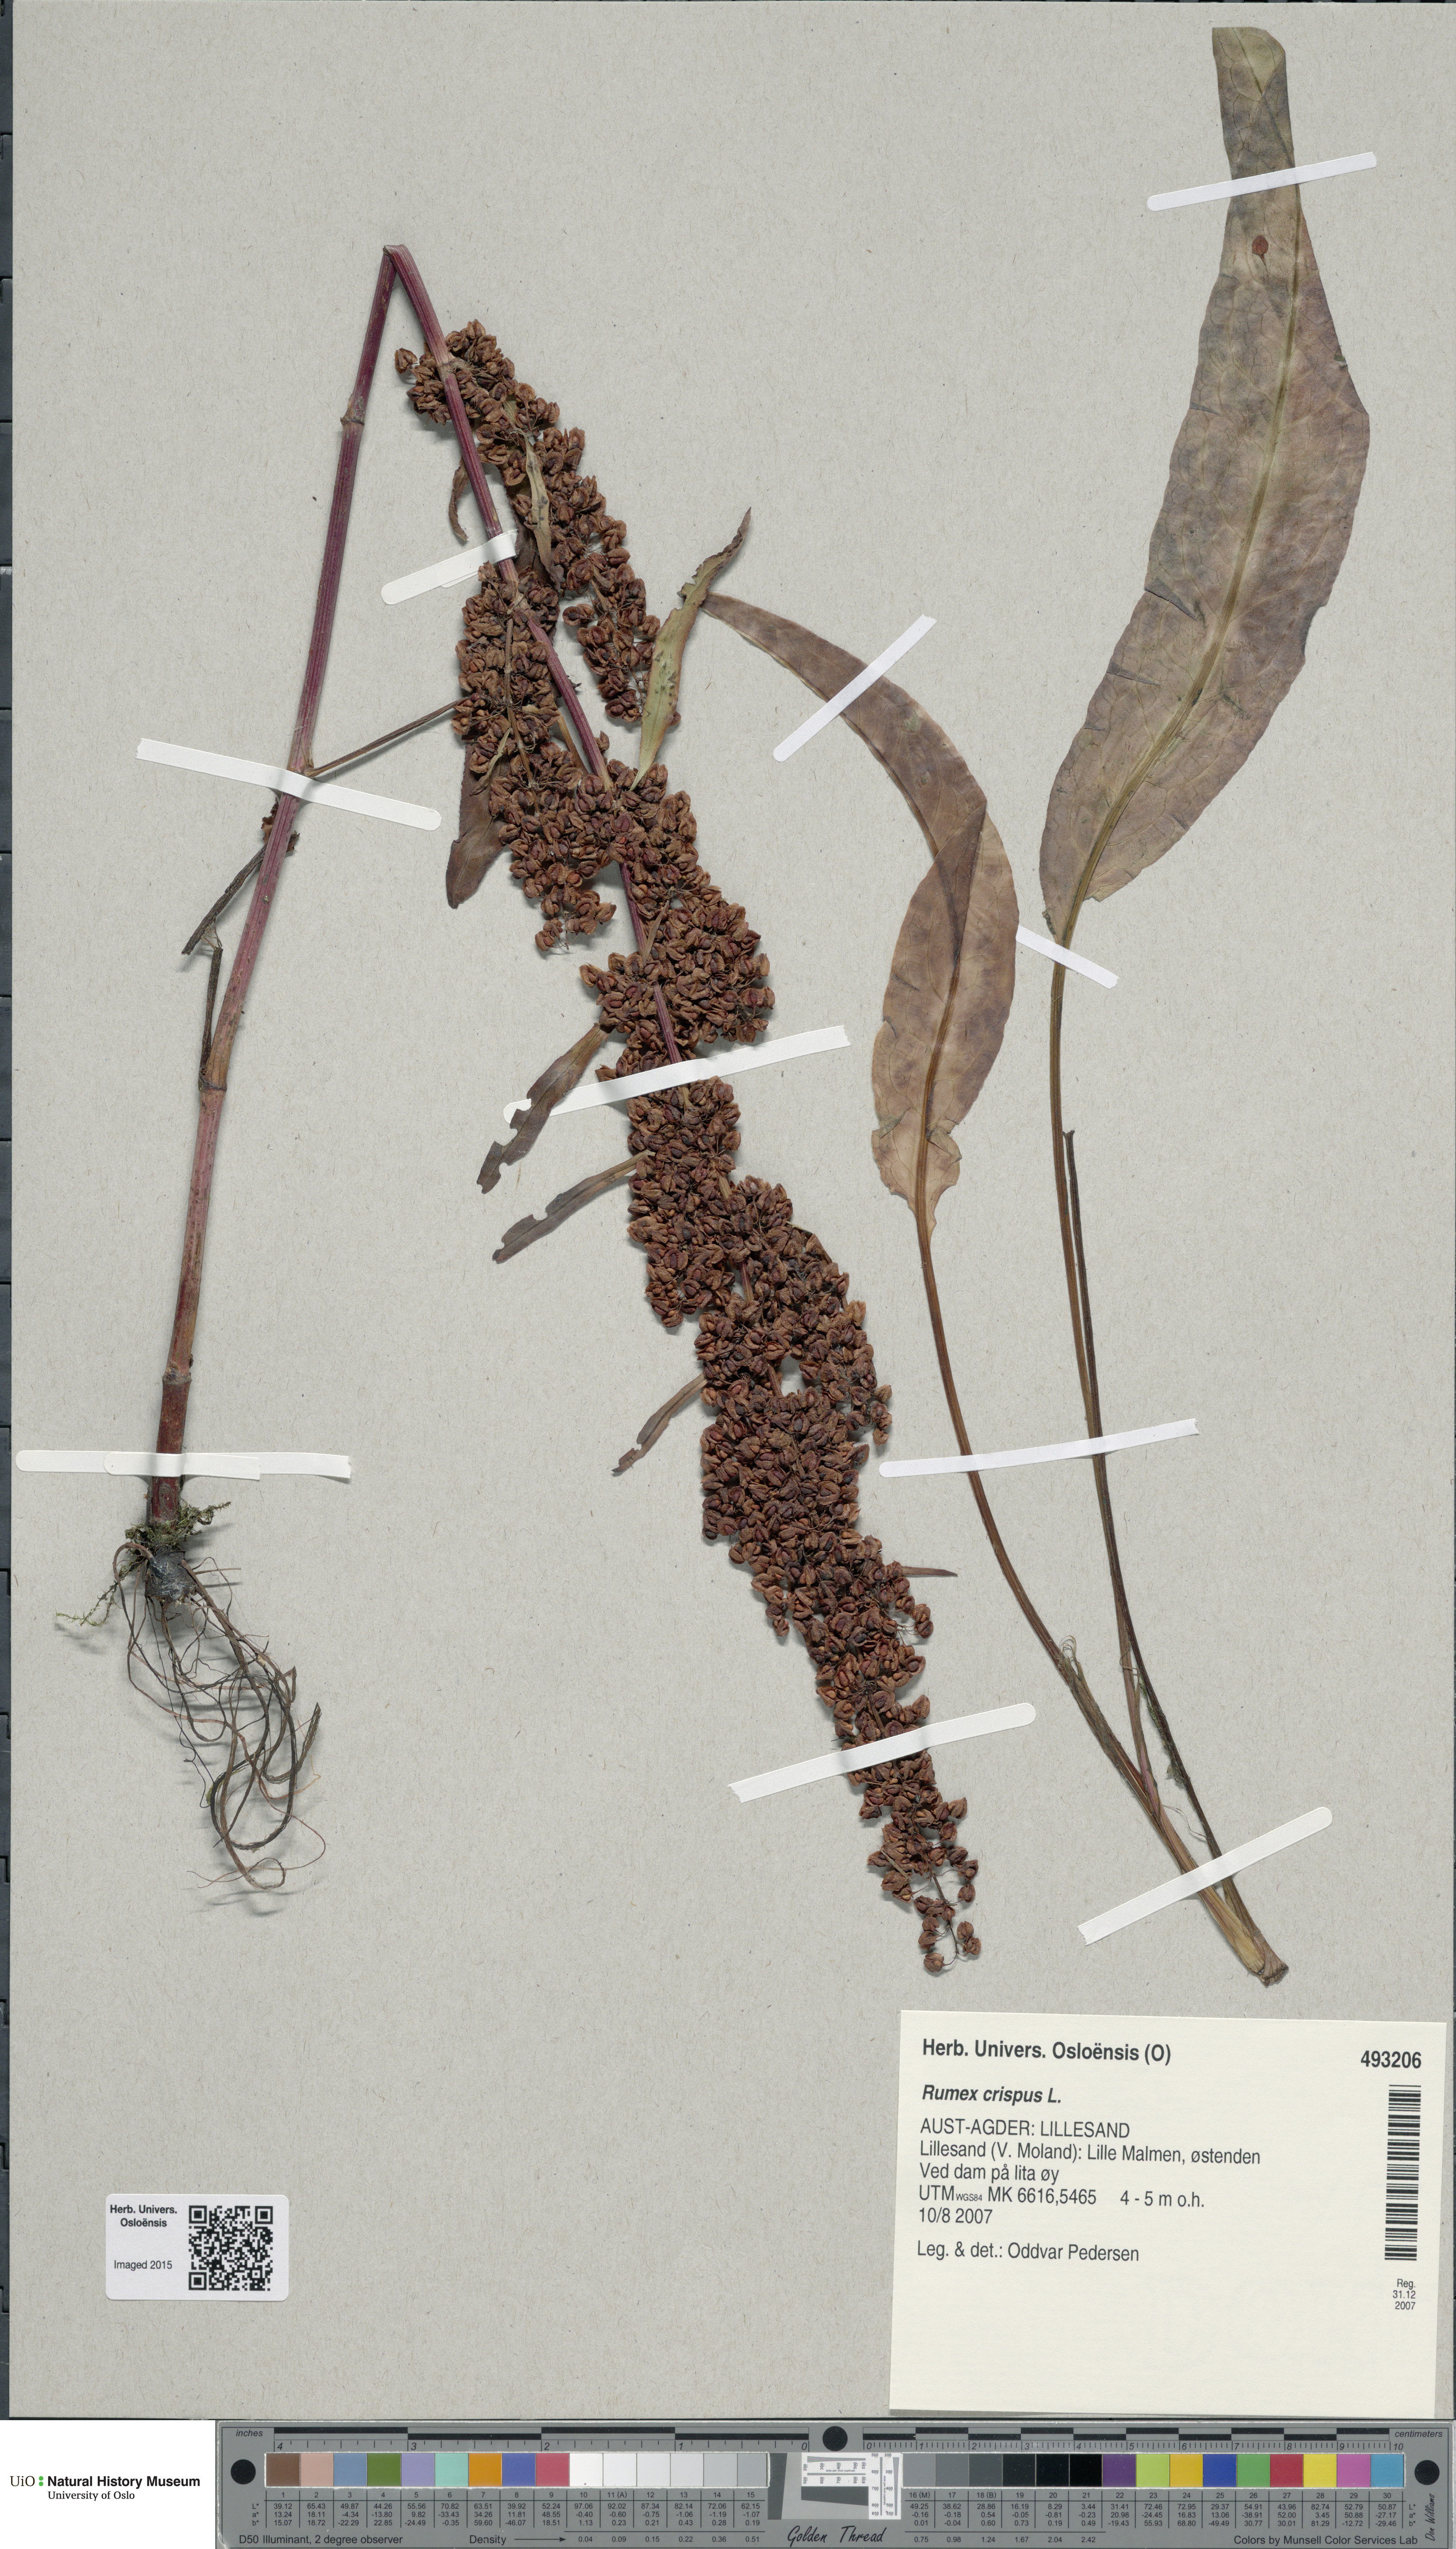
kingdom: Plantae
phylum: Tracheophyta
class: Magnoliopsida
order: Caryophyllales
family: Polygonaceae
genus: Rumex
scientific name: Rumex crispus
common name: Curled dock
